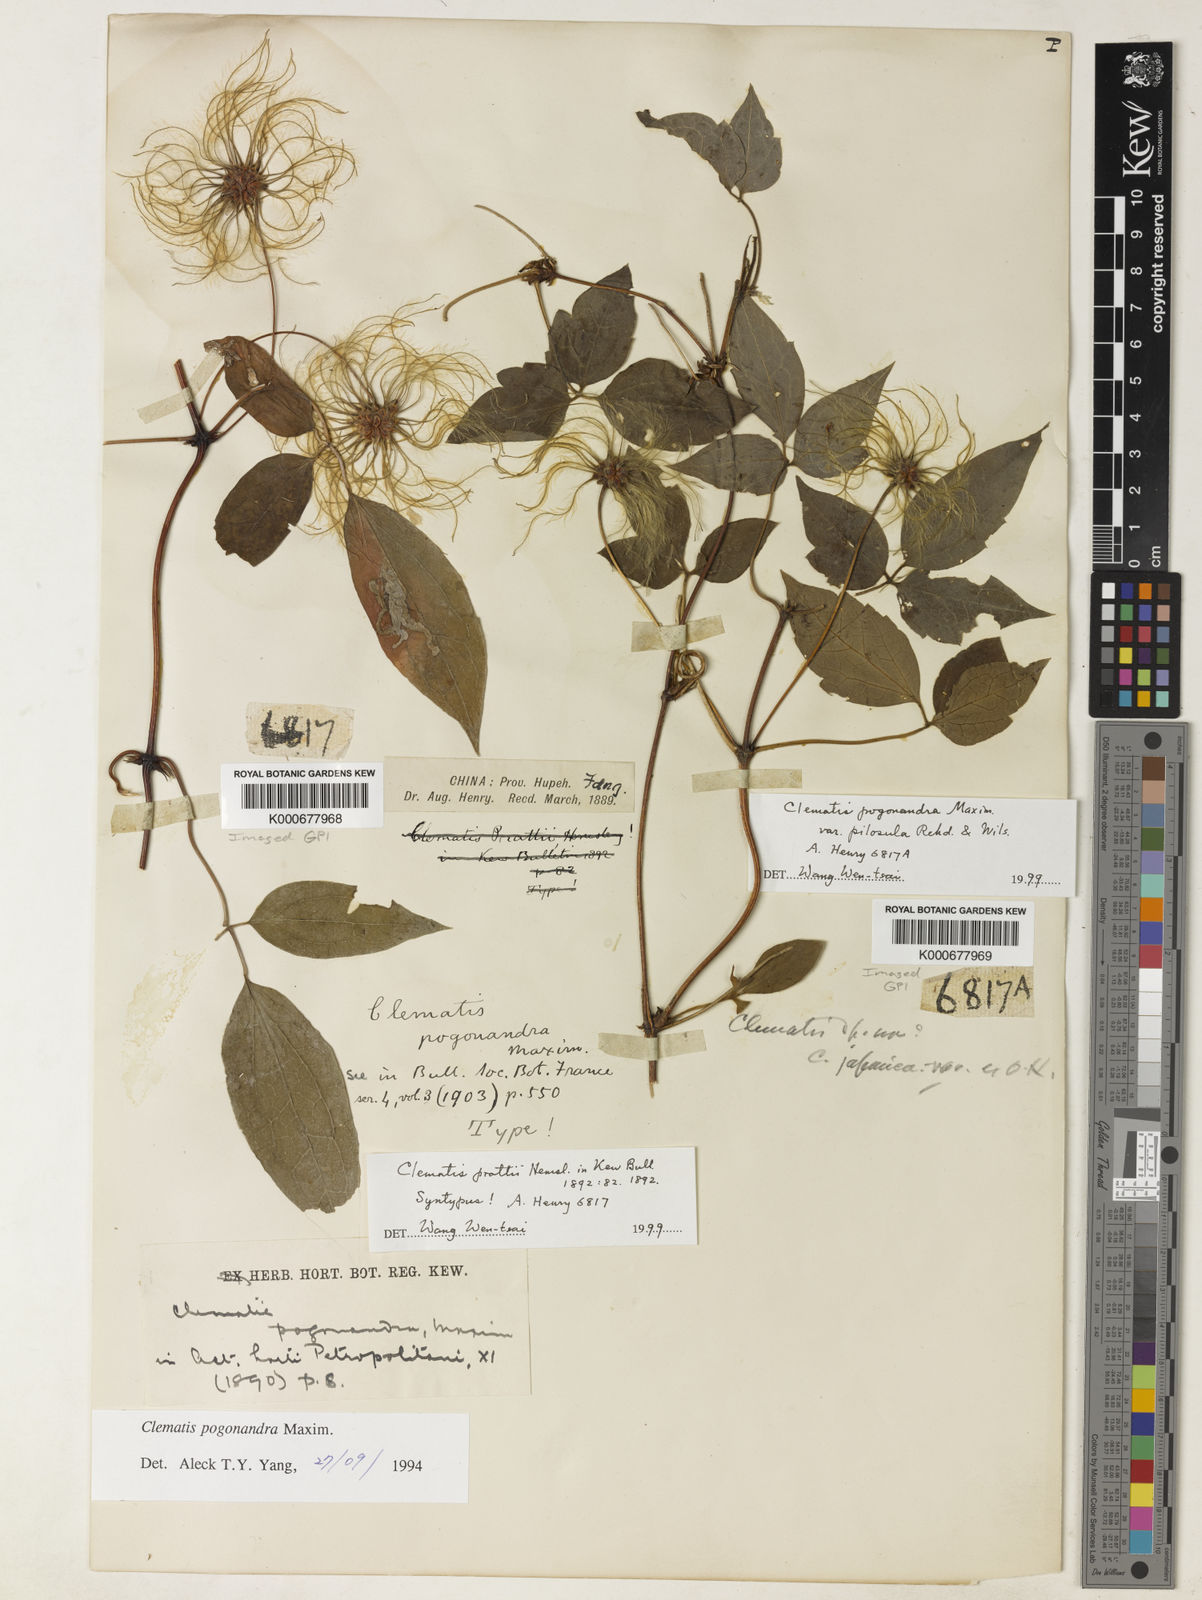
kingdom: Plantae
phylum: Tracheophyta
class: Magnoliopsida
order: Ranunculales
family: Ranunculaceae
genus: Clematis
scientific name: Clematis pogonandra
